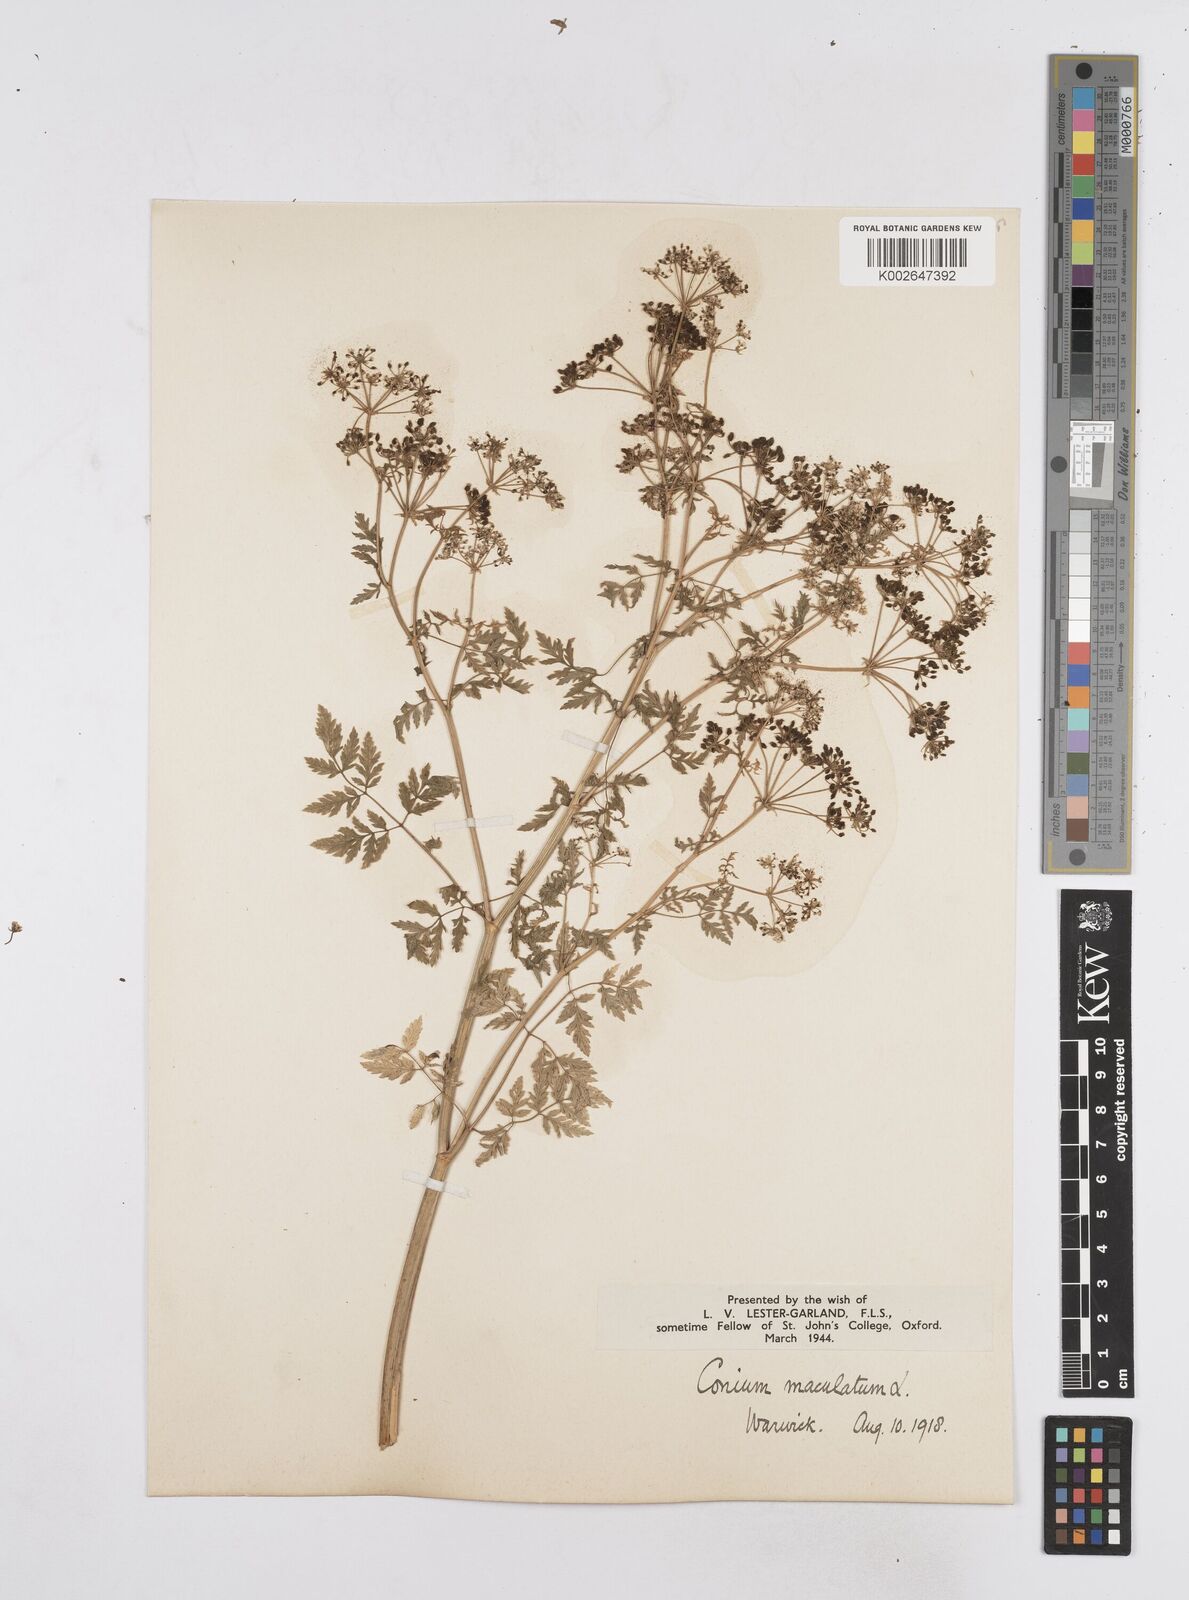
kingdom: Plantae
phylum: Tracheophyta
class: Magnoliopsida
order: Apiales
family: Apiaceae
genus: Conium
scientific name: Conium maculatum
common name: Hemlock
